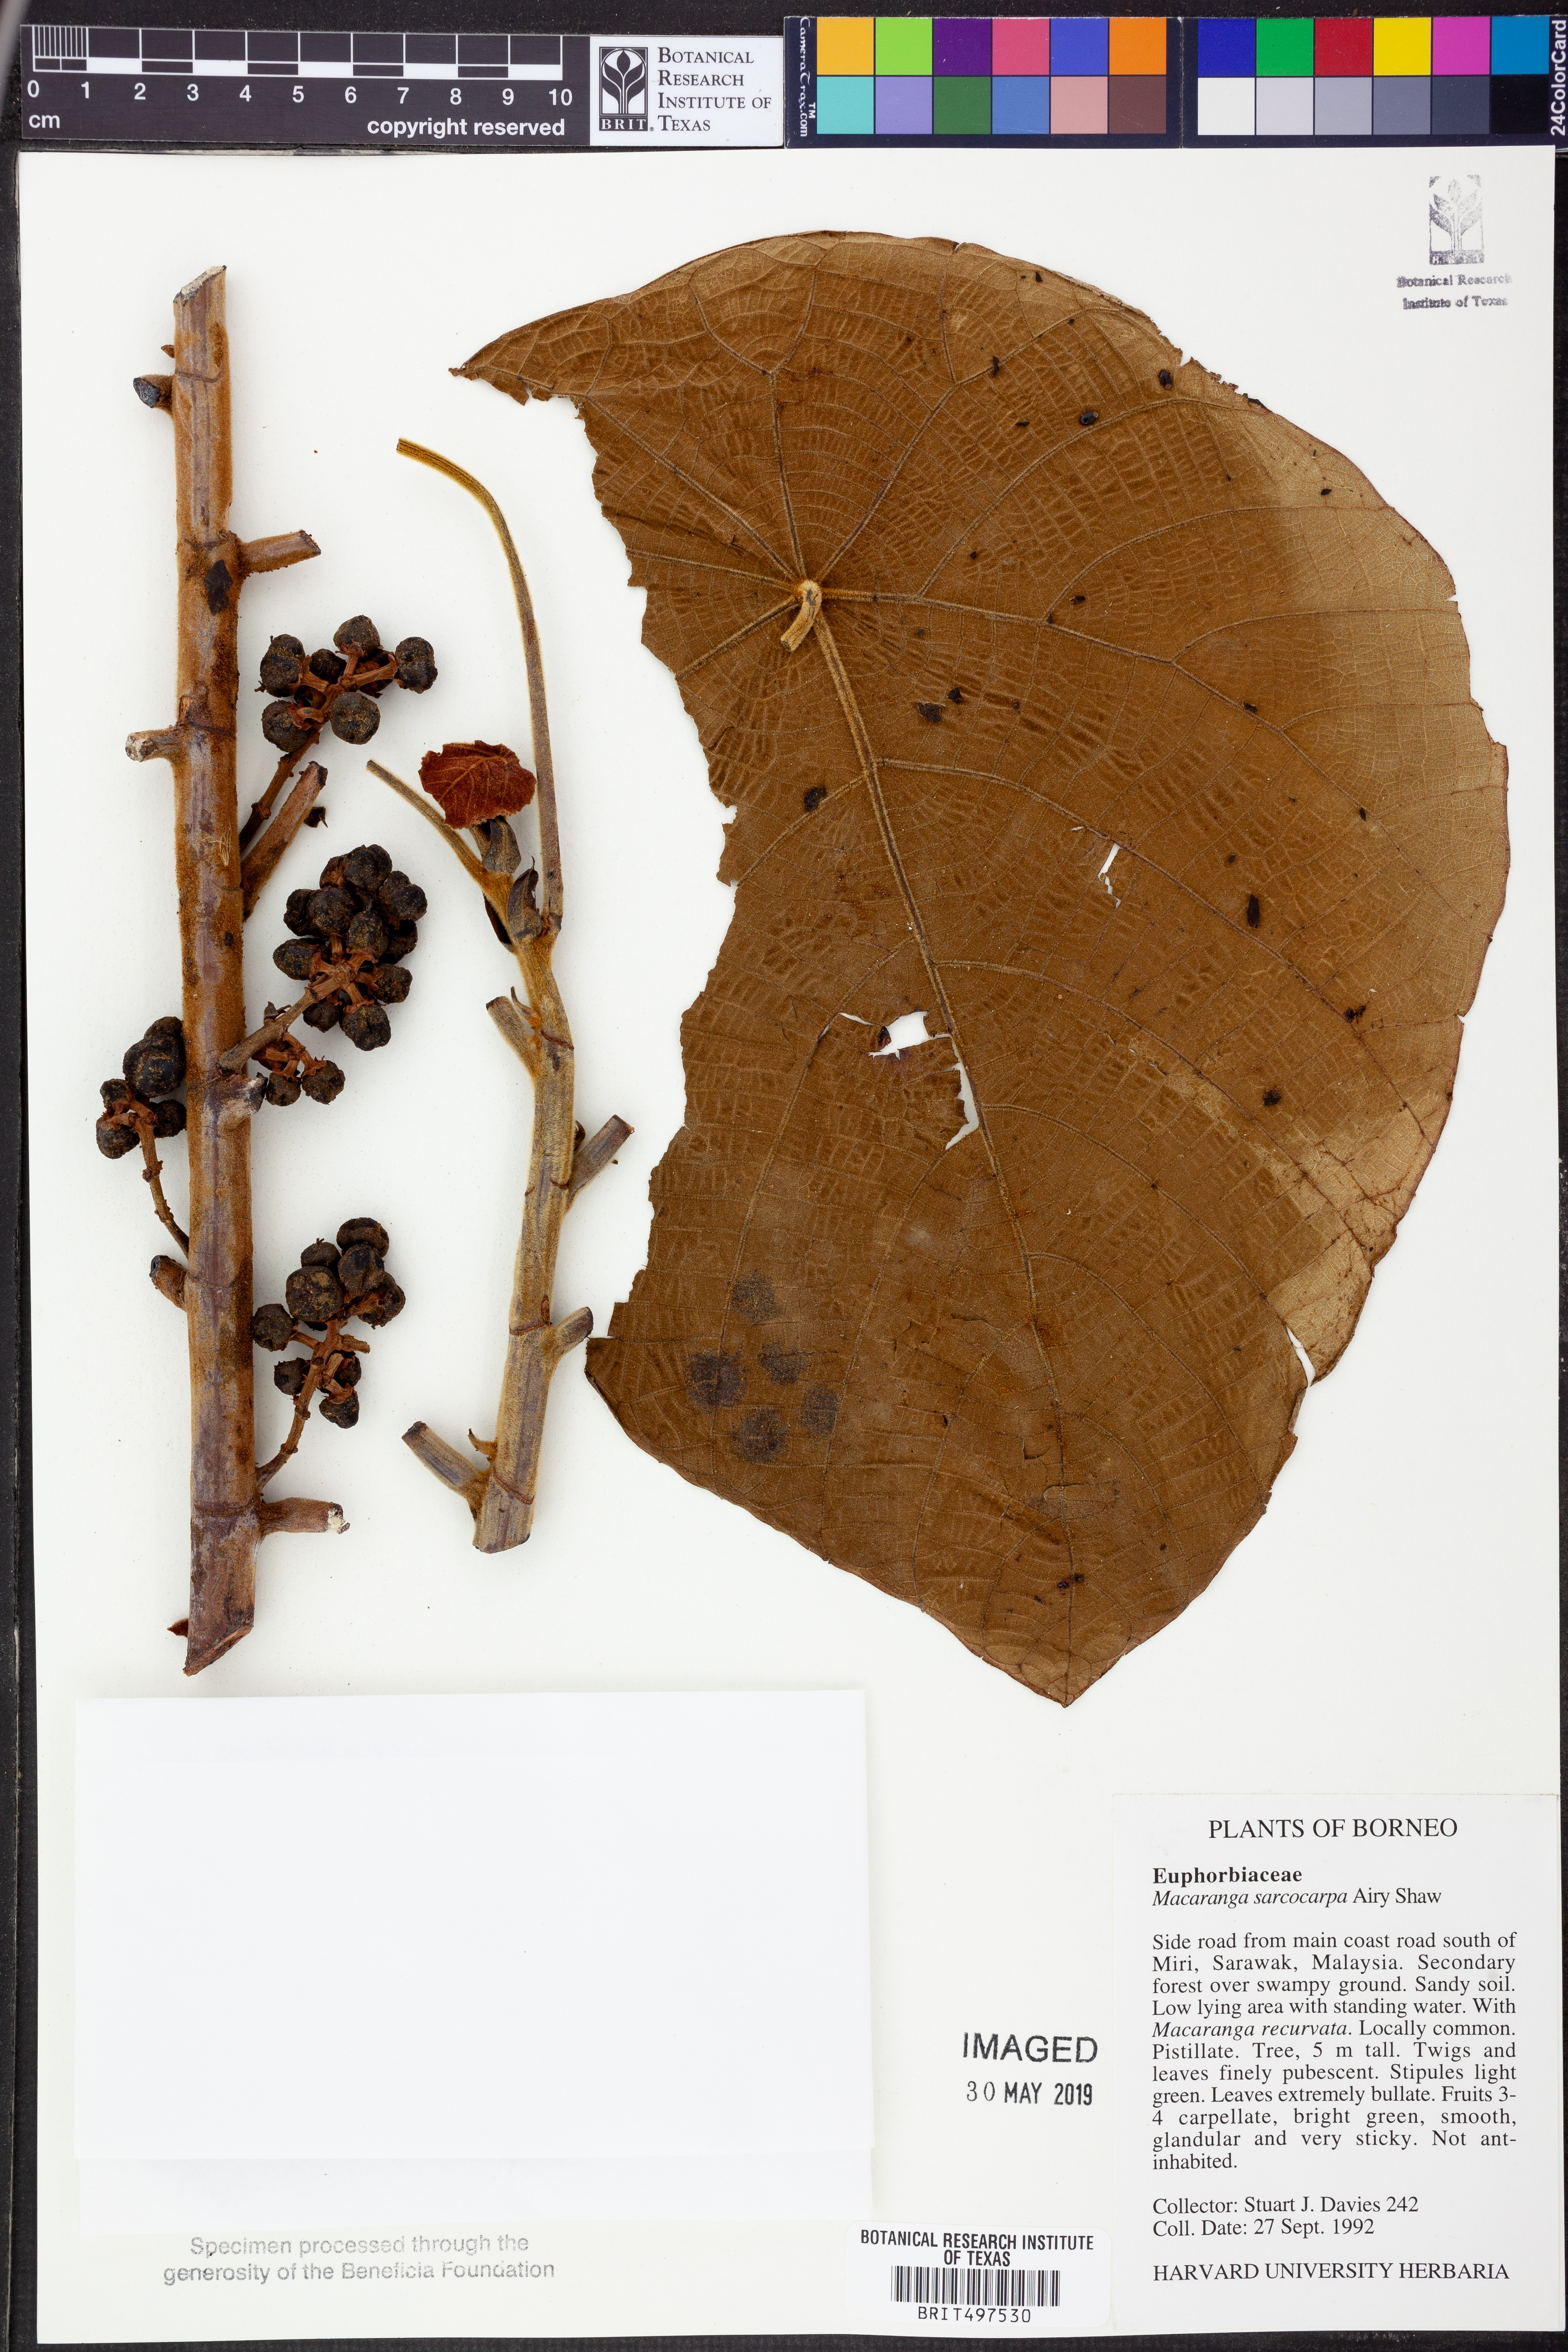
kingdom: Plantae
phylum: Tracheophyta
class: Magnoliopsida
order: Malpighiales
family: Euphorbiaceae
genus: Macaranga
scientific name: Macaranga sarcocarpa
